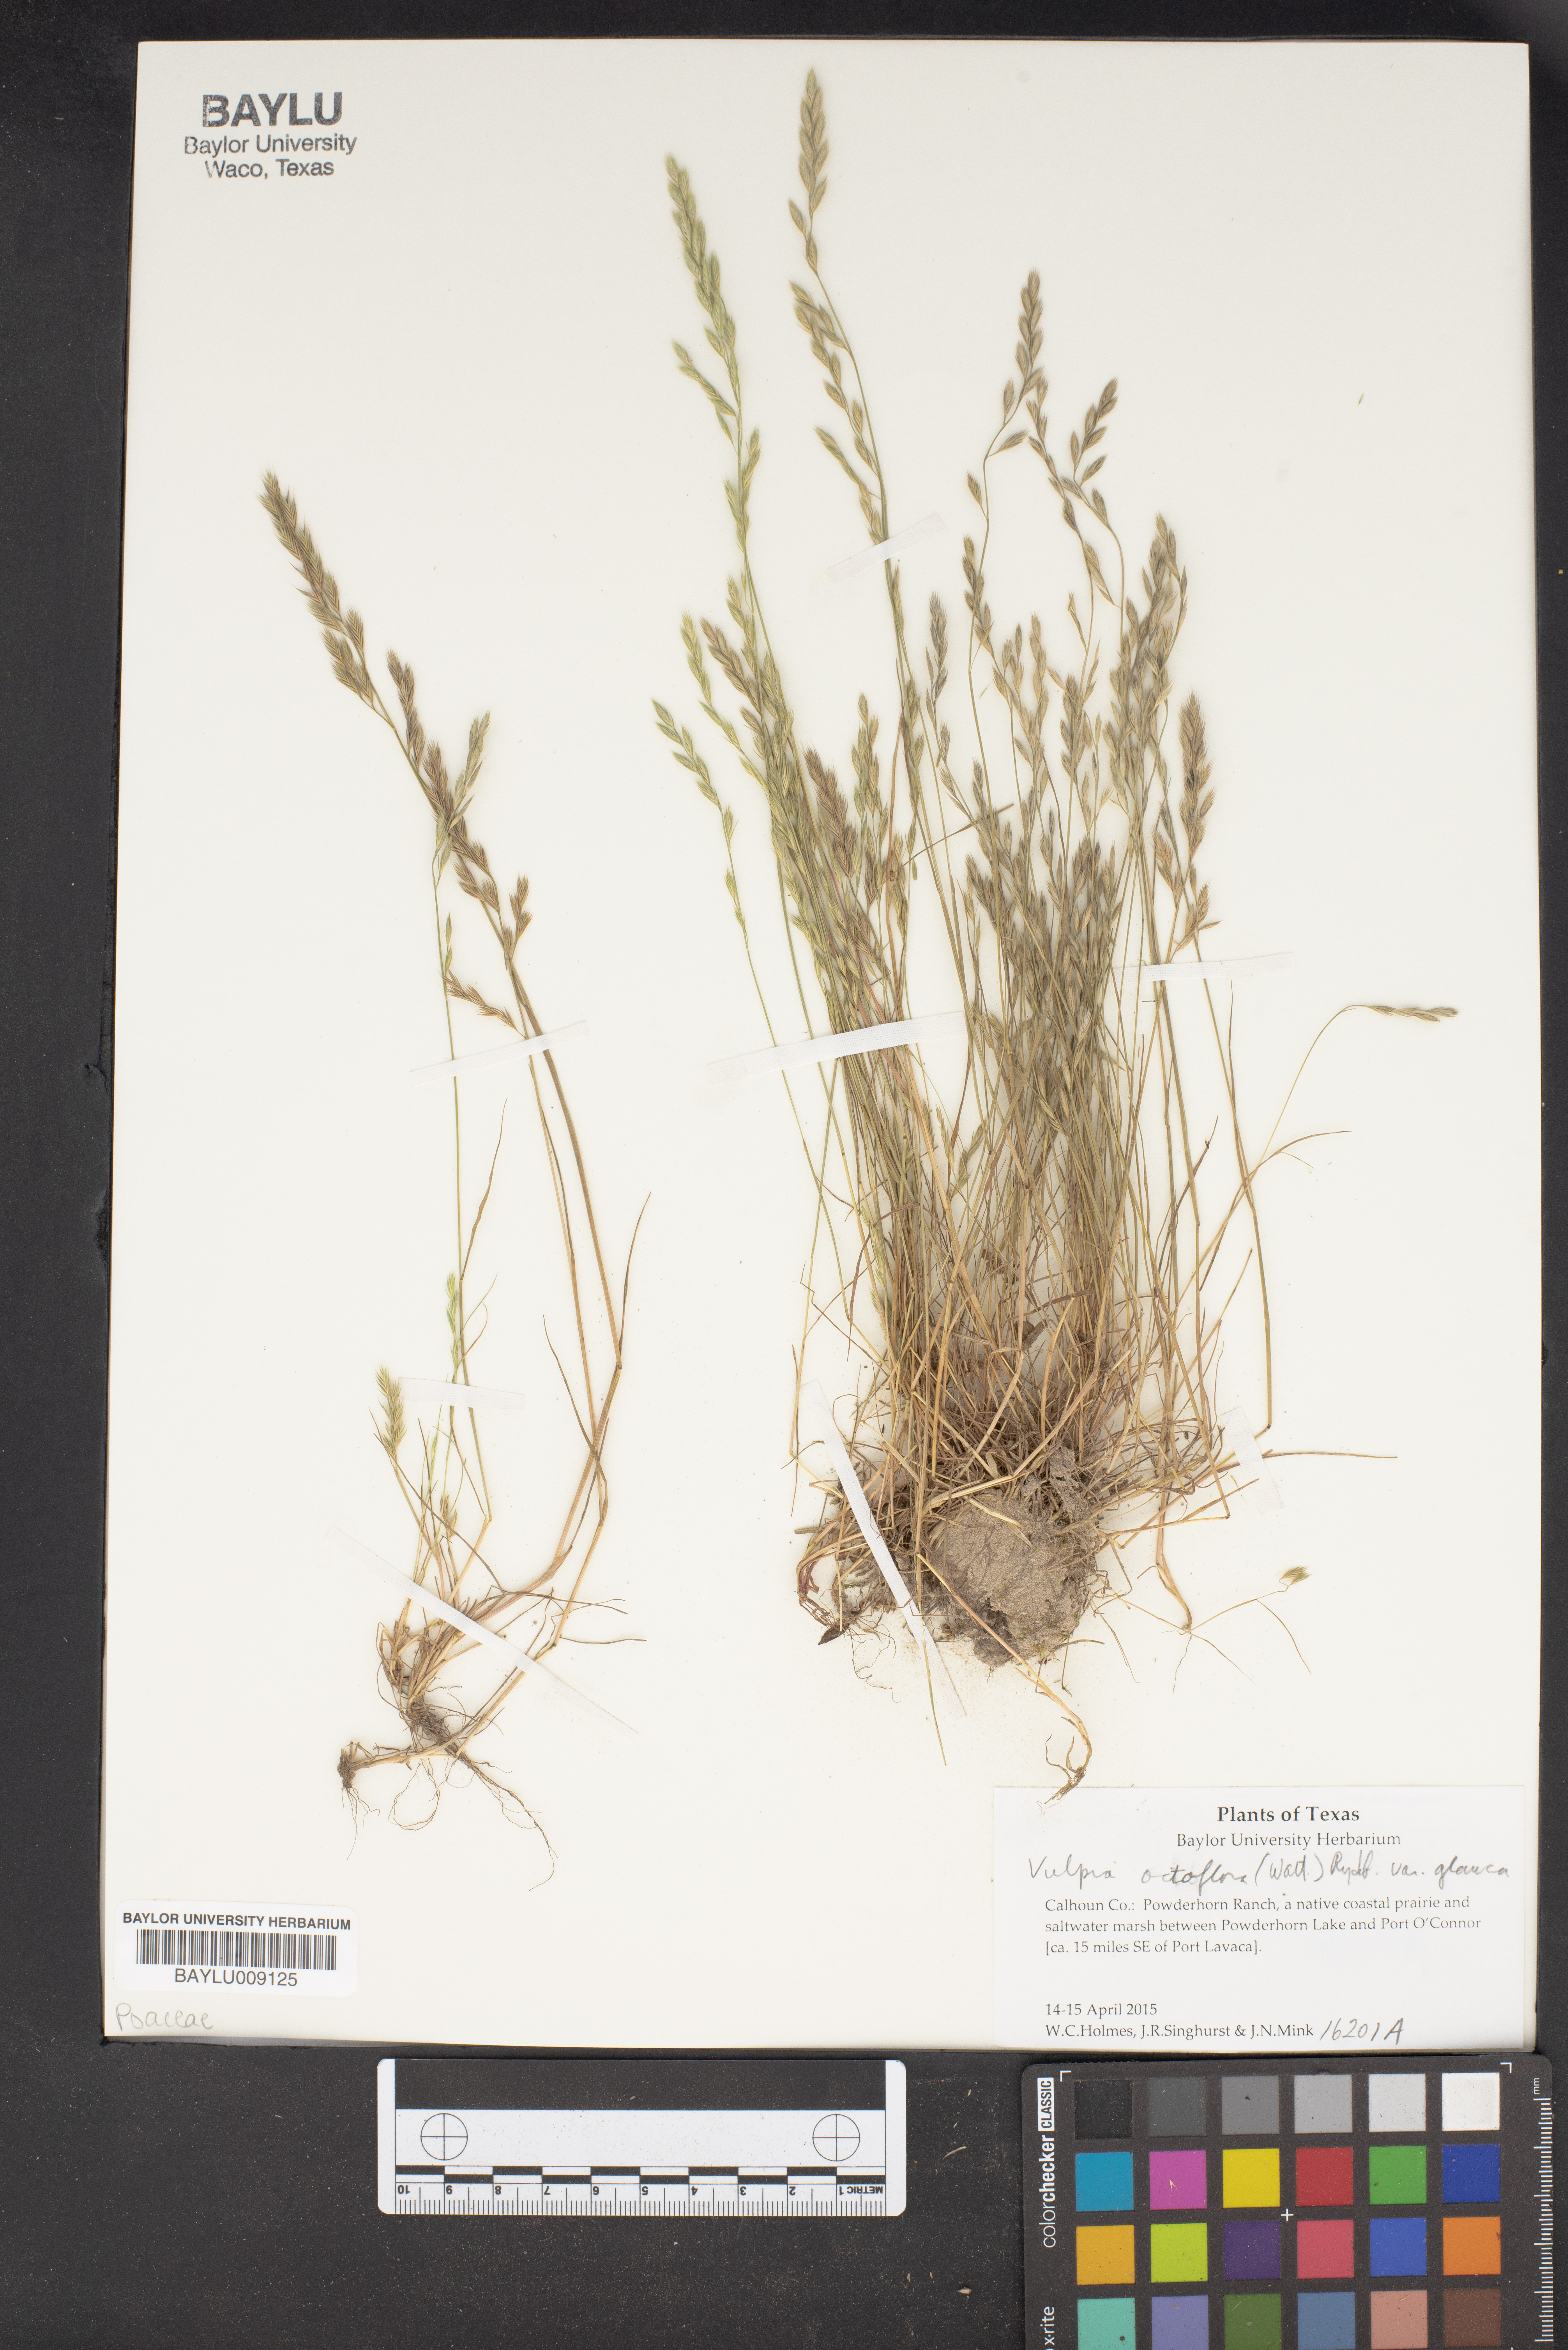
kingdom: Plantae
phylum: Tracheophyta
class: Liliopsida
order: Poales
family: Poaceae
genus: Festuca
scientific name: Festuca octoflora
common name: Sixweeks grass
